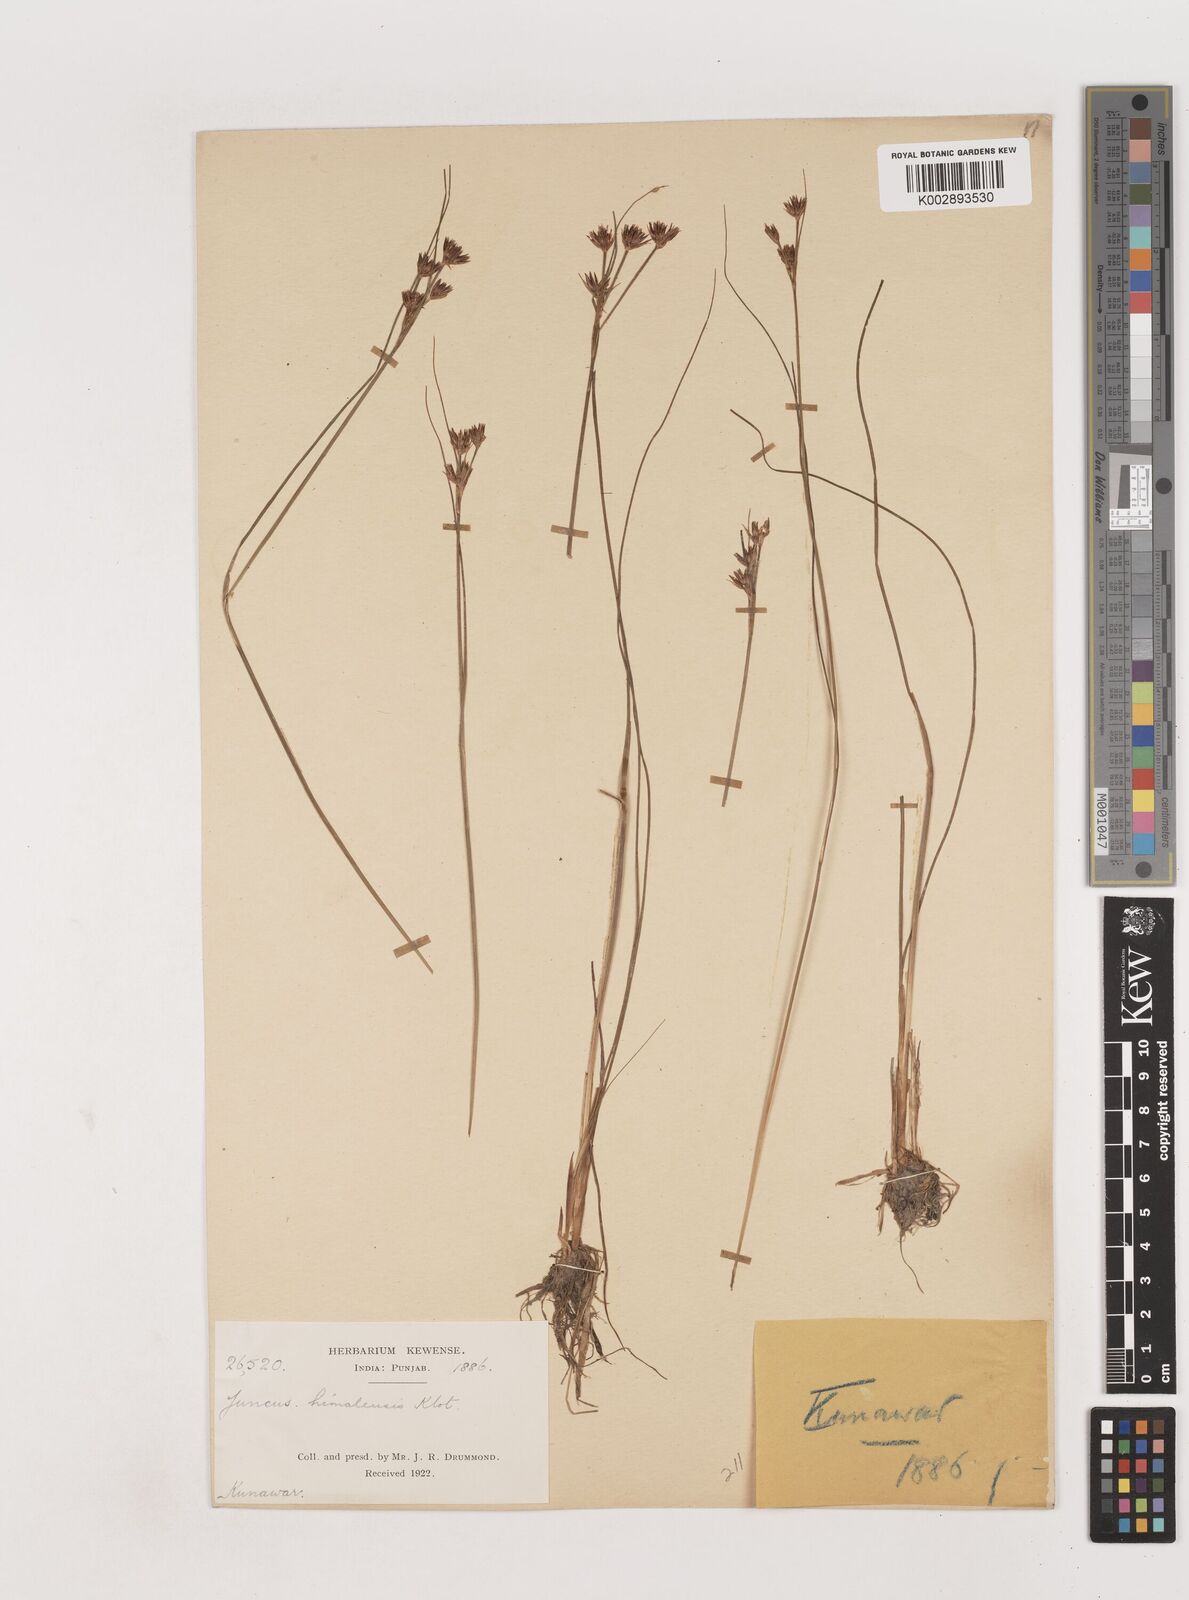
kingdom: Plantae
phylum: Tracheophyta
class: Liliopsida
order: Poales
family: Juncaceae
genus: Juncus
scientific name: Juncus himalensis
